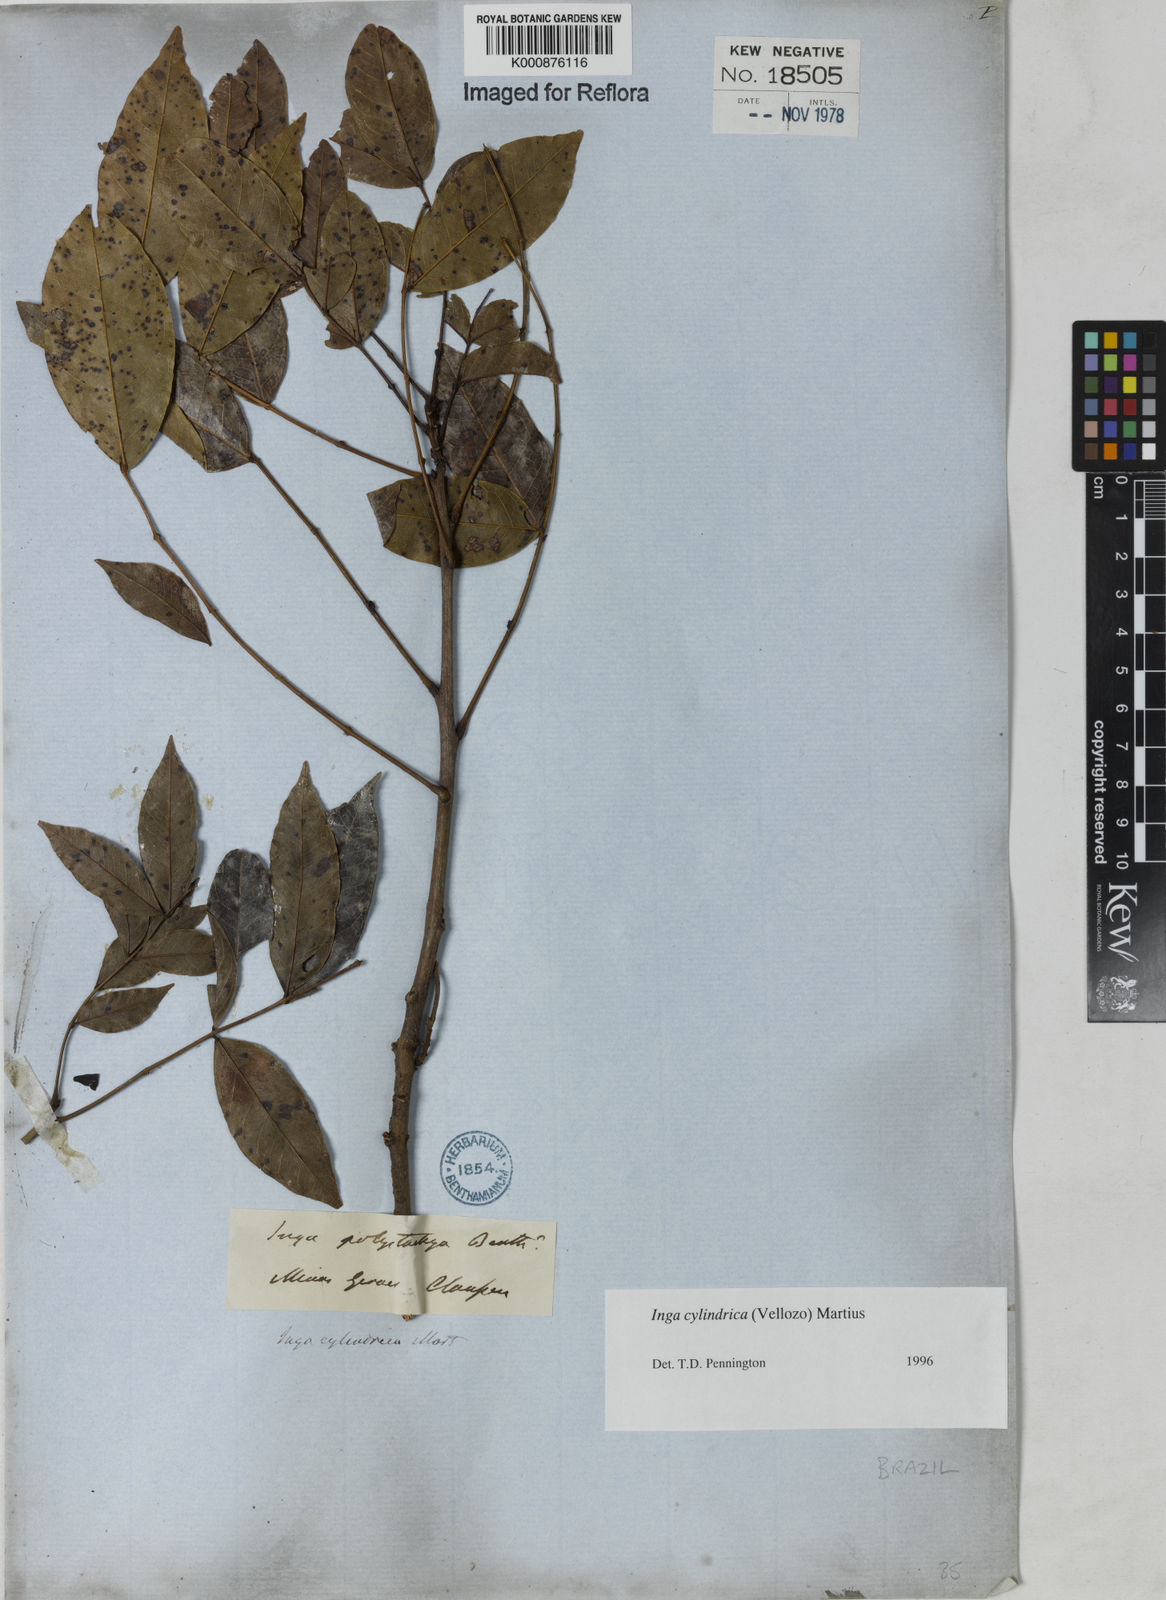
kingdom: Plantae
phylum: Tracheophyta
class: Magnoliopsida
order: Fabales
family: Fabaceae
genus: Inga
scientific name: Inga cylindrica
